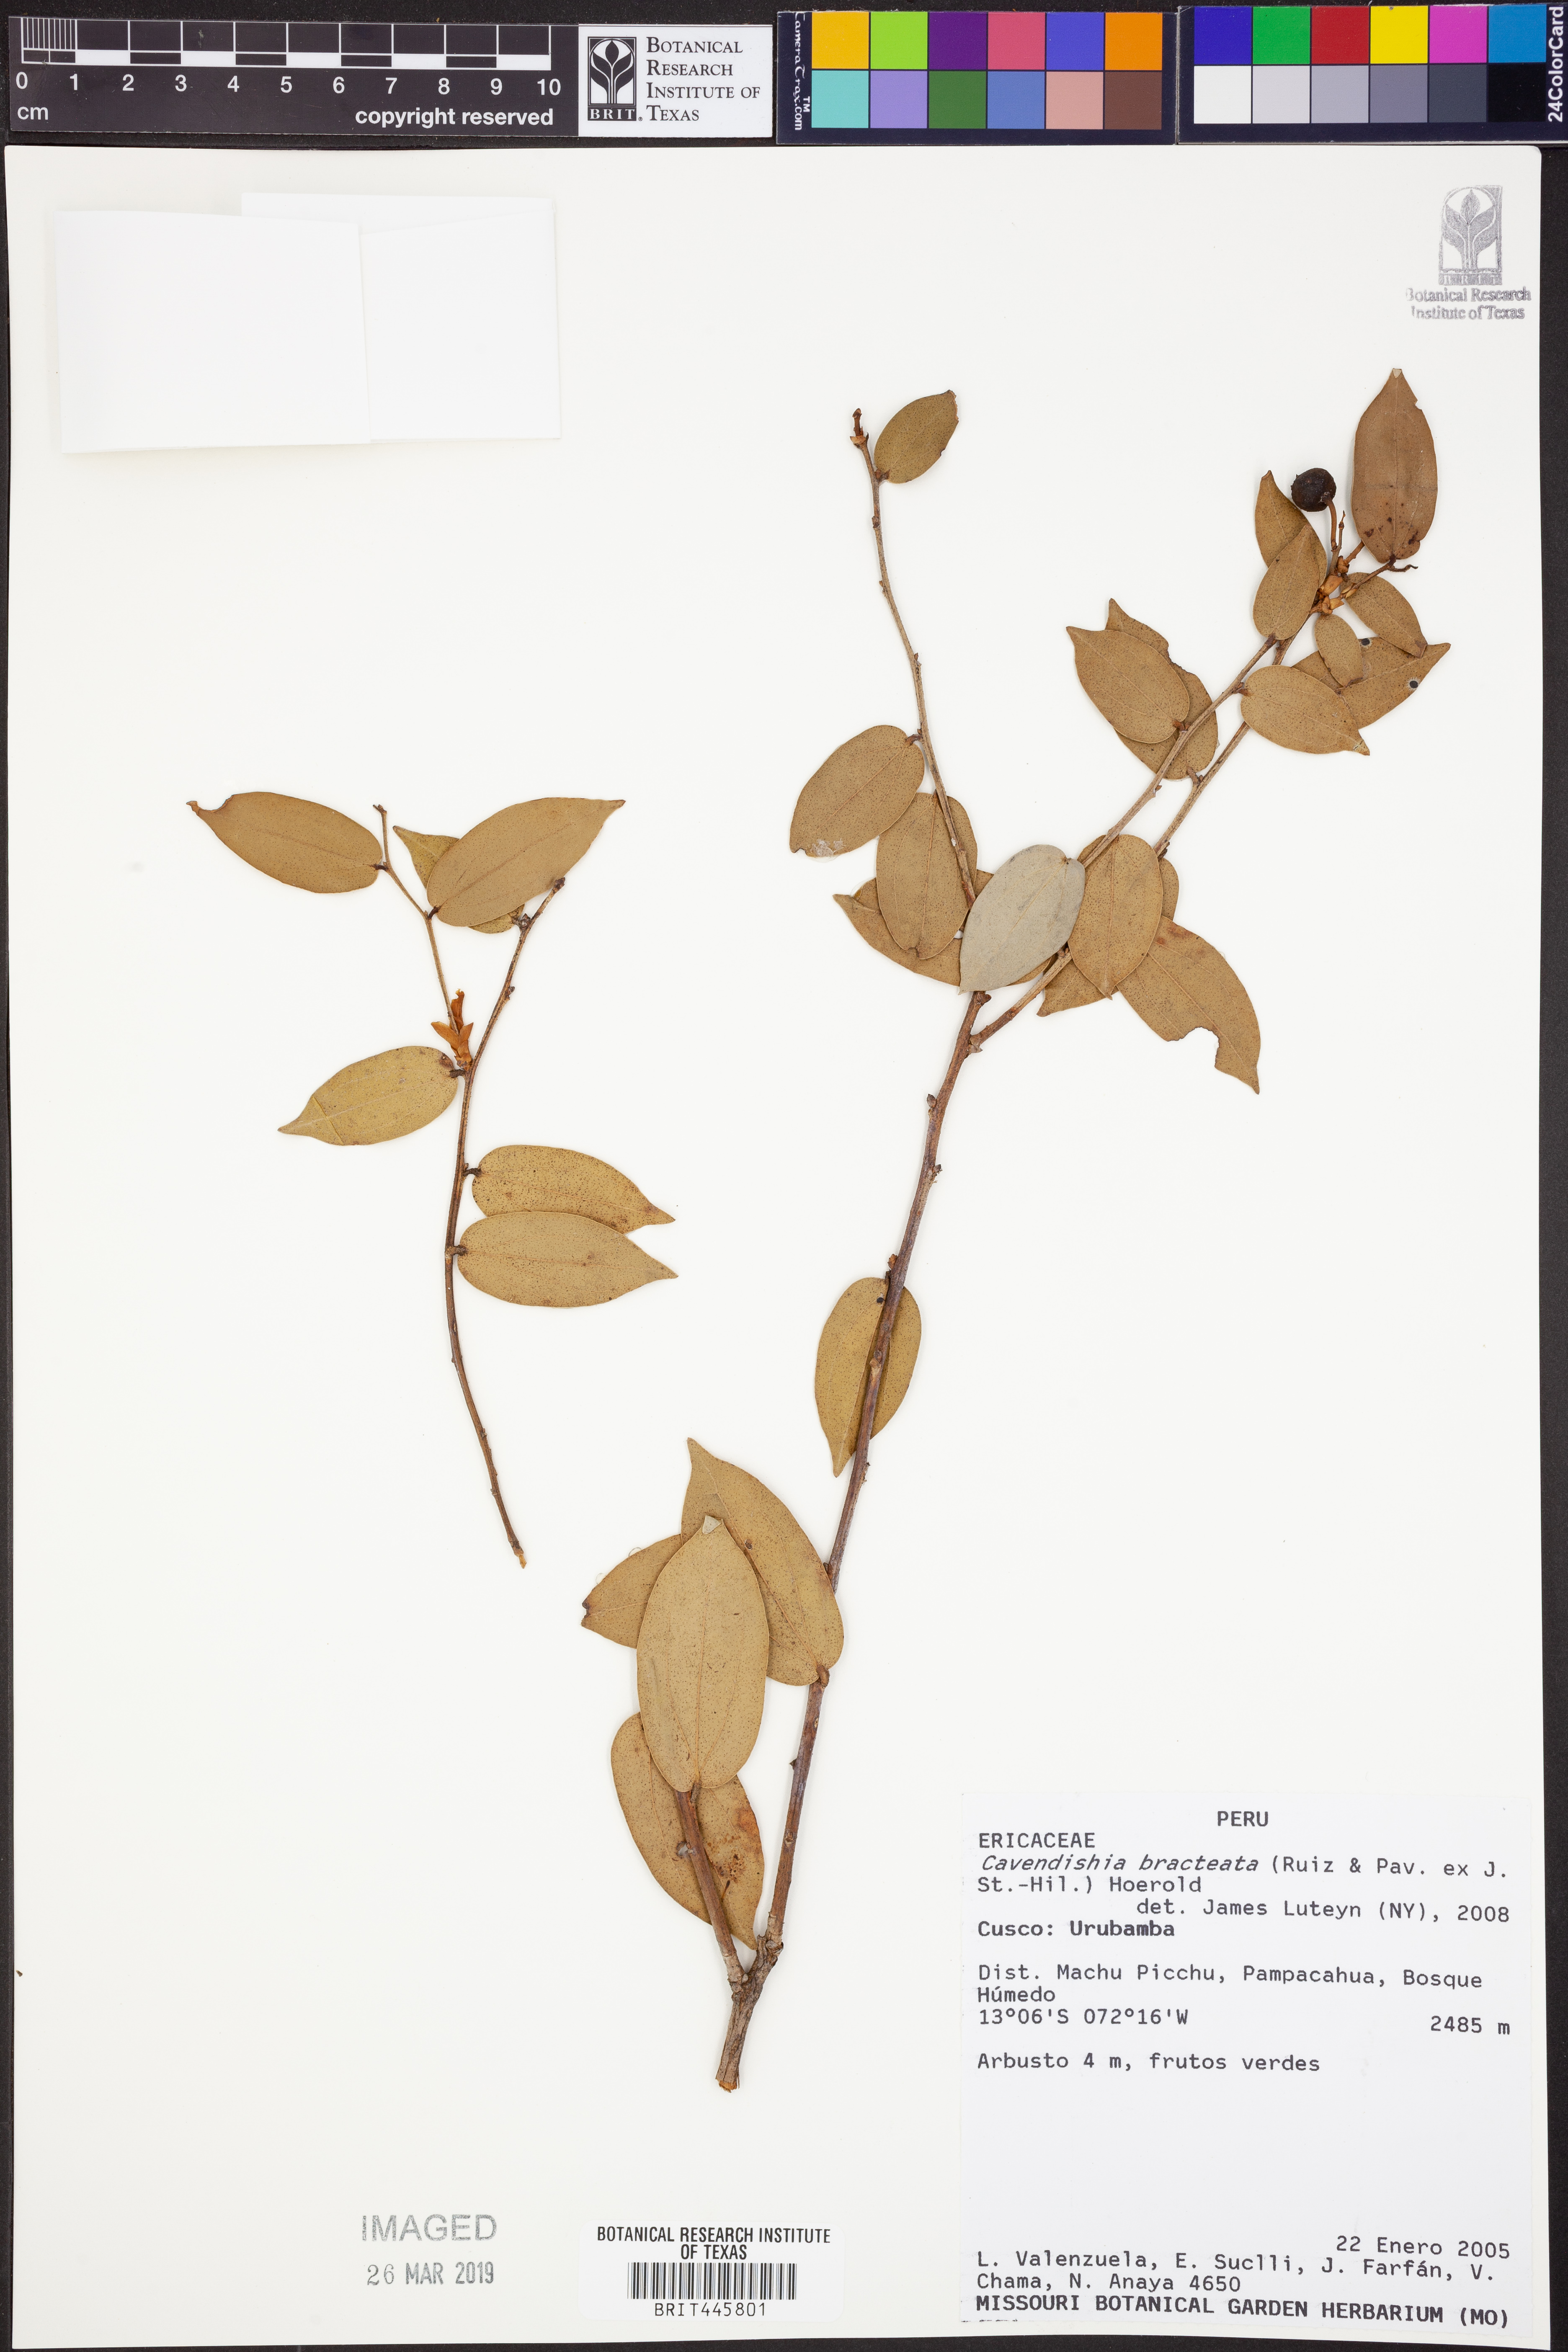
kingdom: Plantae
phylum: Tracheophyta
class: Magnoliopsida
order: Ericales
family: Ericaceae
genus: Cavendishia
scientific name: Cavendishia bracteata
